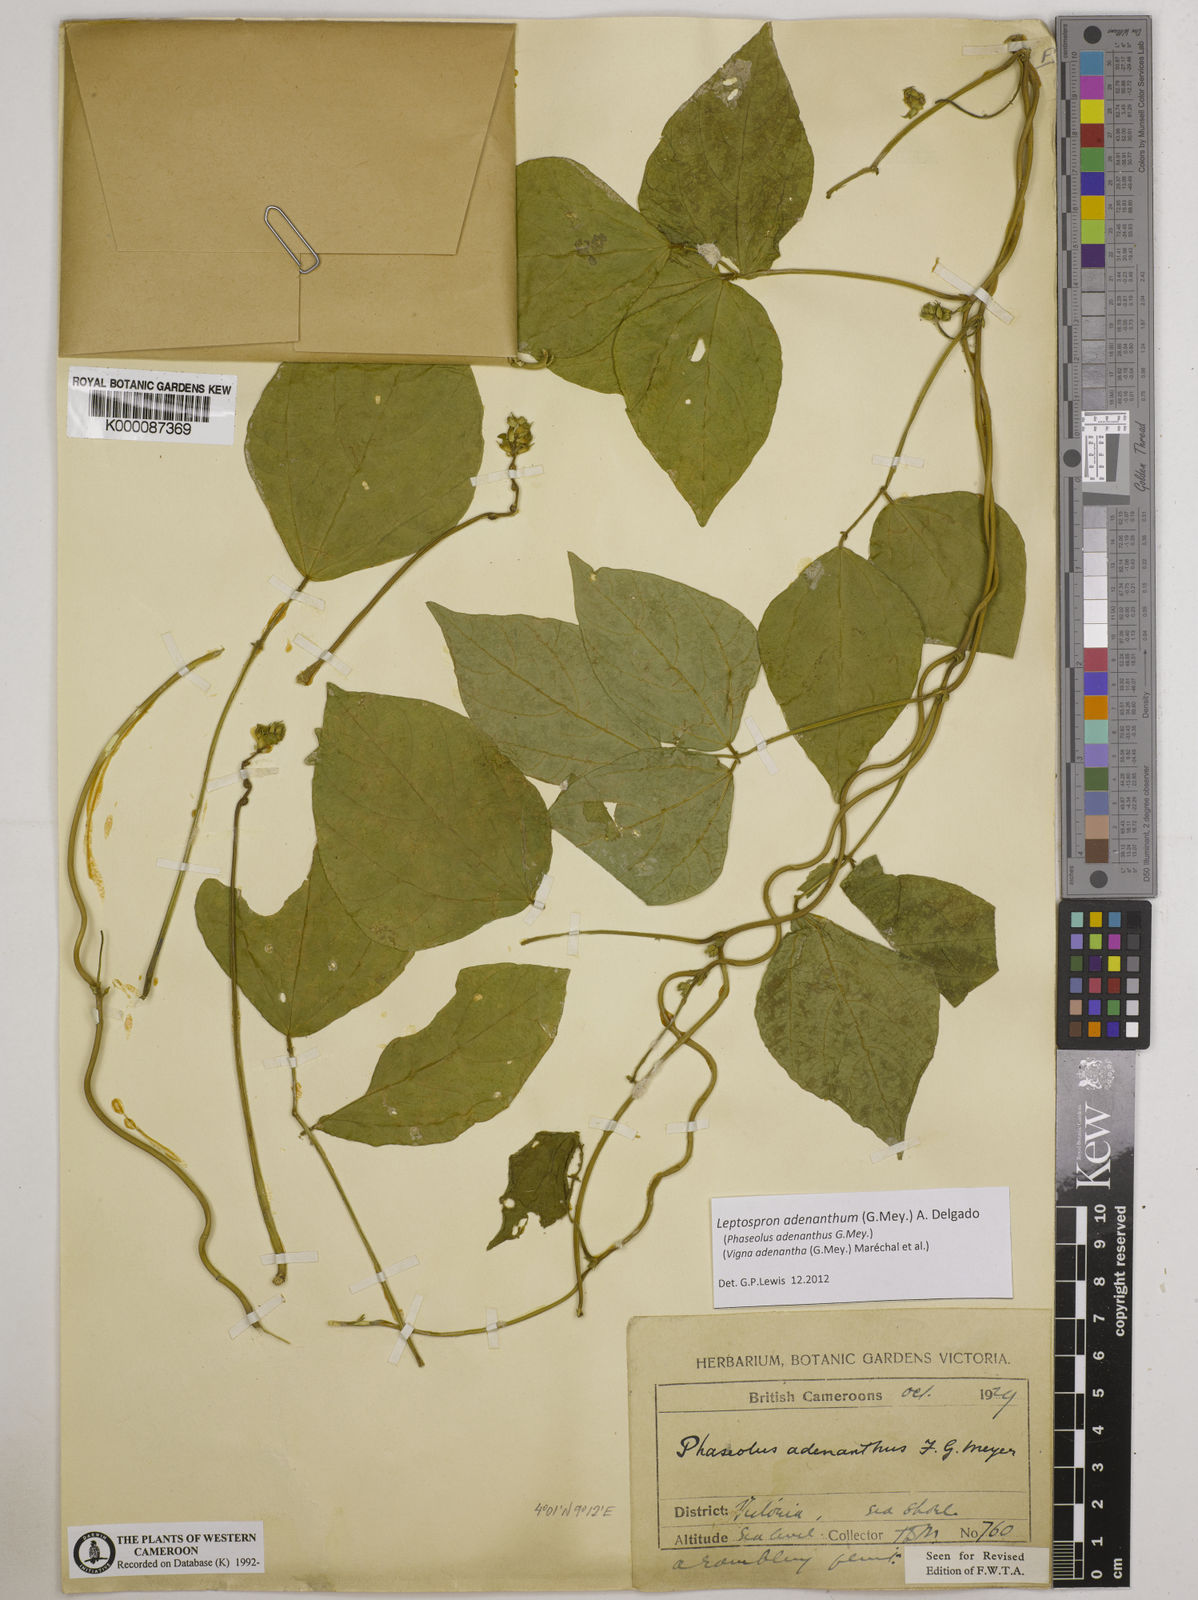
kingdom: Plantae
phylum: Tracheophyta
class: Magnoliopsida
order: Fabales
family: Fabaceae
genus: Vigna
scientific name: Vigna
